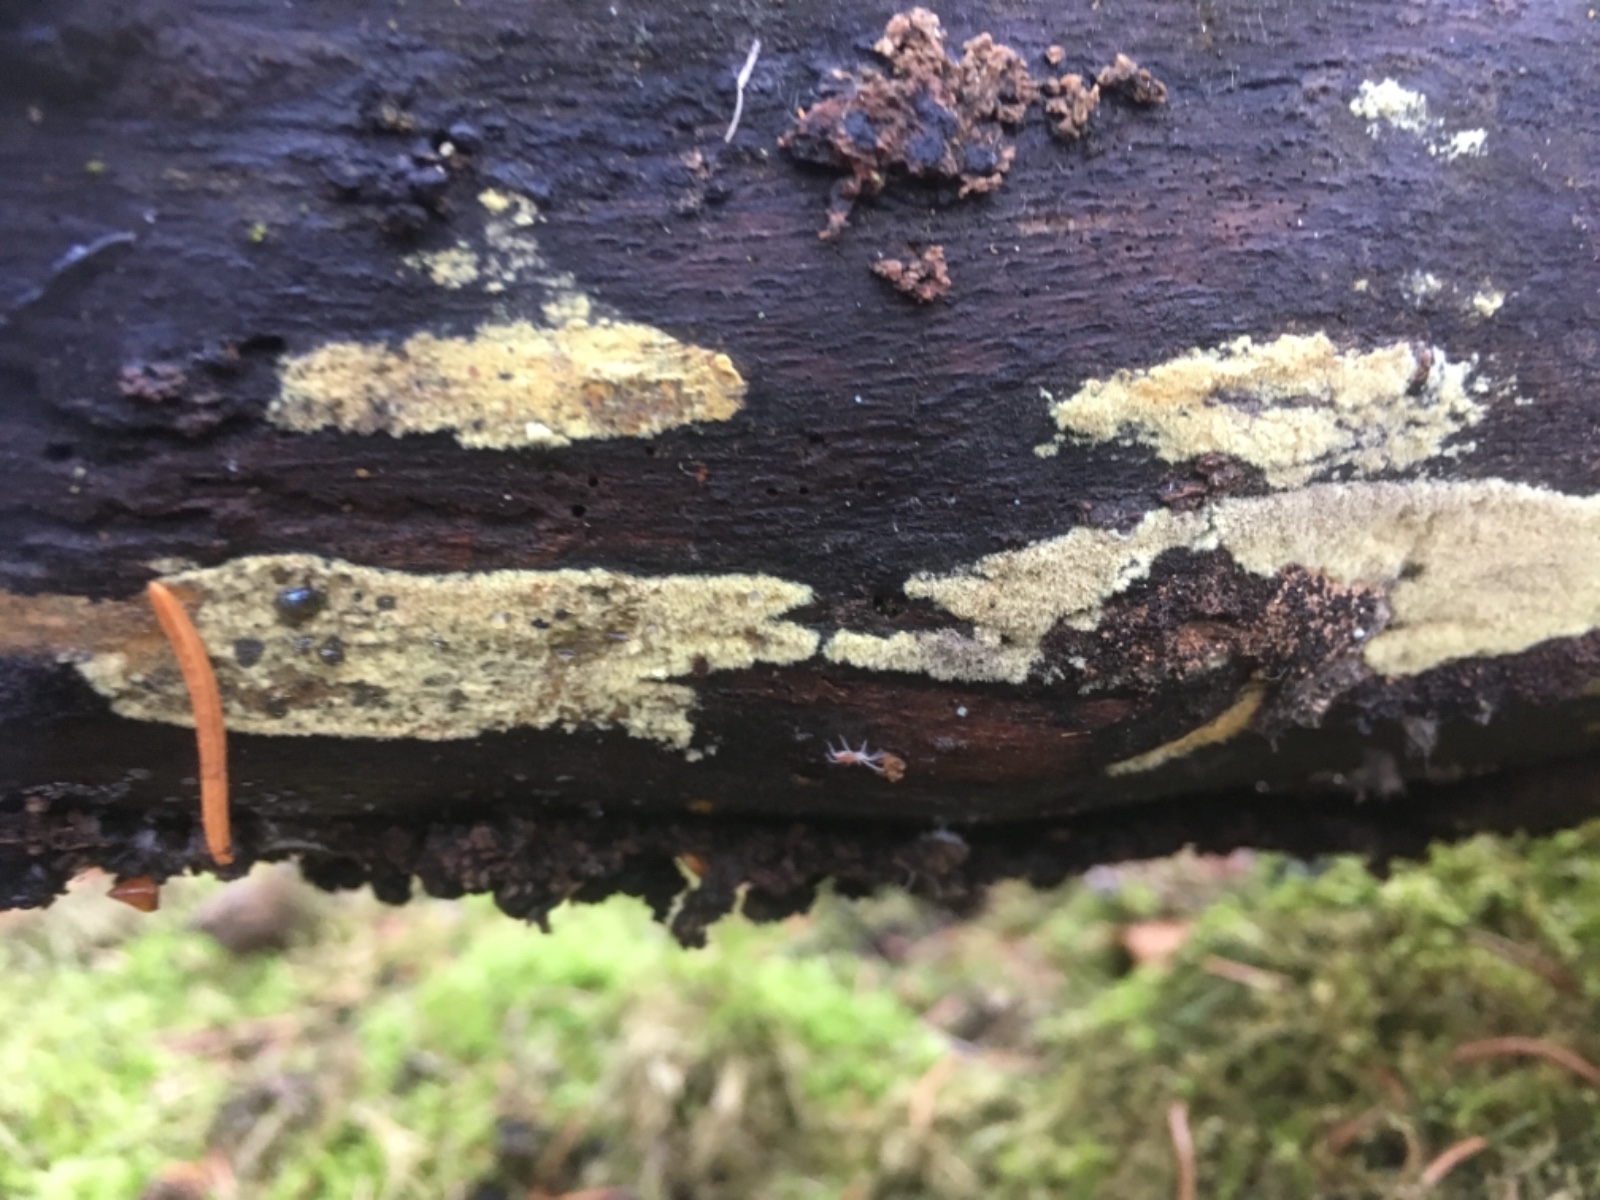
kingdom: Fungi
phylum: Ascomycota
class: Sordariomycetes
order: Xylariales
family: Hypoxylaceae
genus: Hypoxylon
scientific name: Hypoxylon
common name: kulbær
